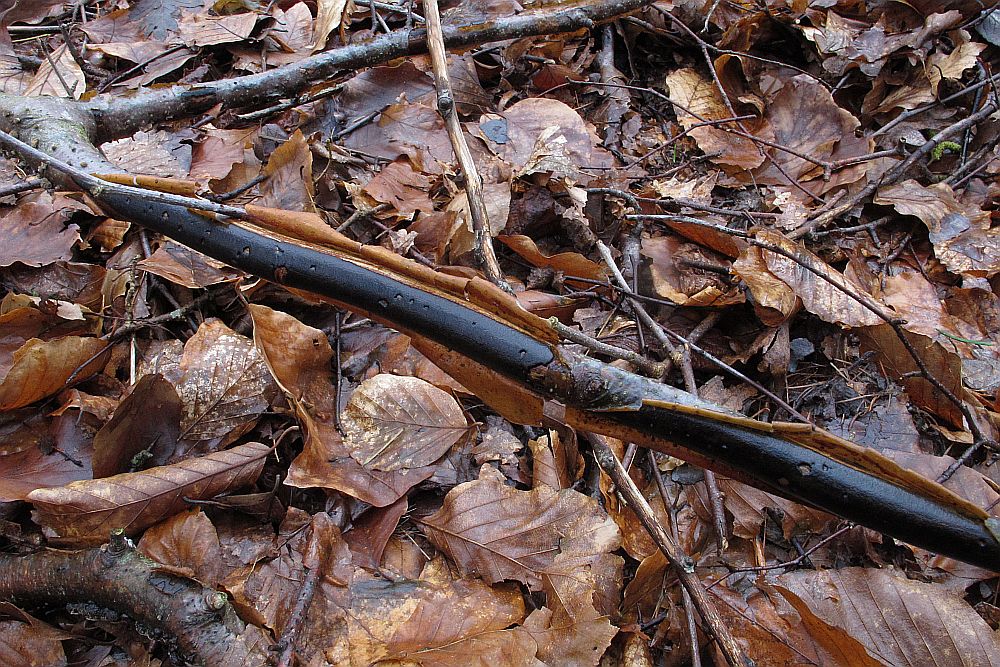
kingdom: Fungi
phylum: Ascomycota
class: Sordariomycetes
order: Xylariales
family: Diatrypaceae
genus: Diatrype
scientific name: Diatrype decorticata
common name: barksprænger-kulskorpe
